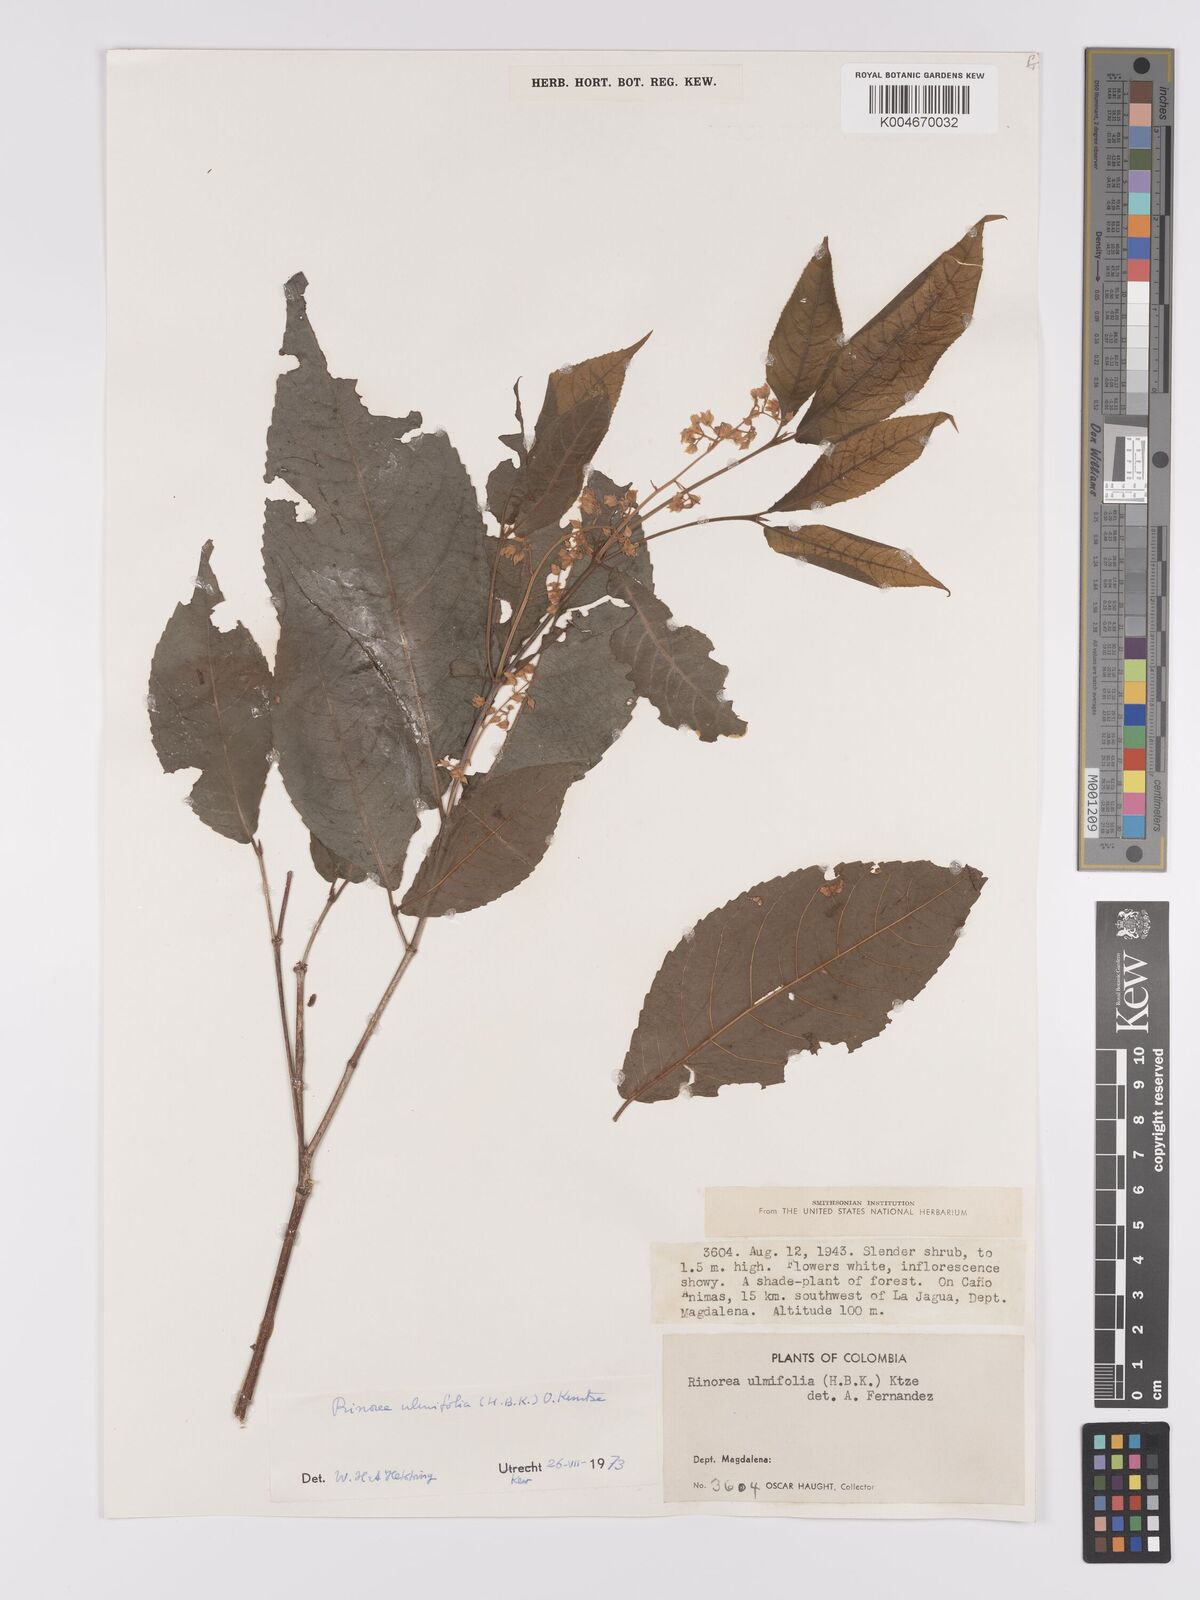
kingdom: Plantae
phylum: Tracheophyta
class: Magnoliopsida
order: Malpighiales
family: Violaceae
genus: Rinorea
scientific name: Rinorea ulmifolia
